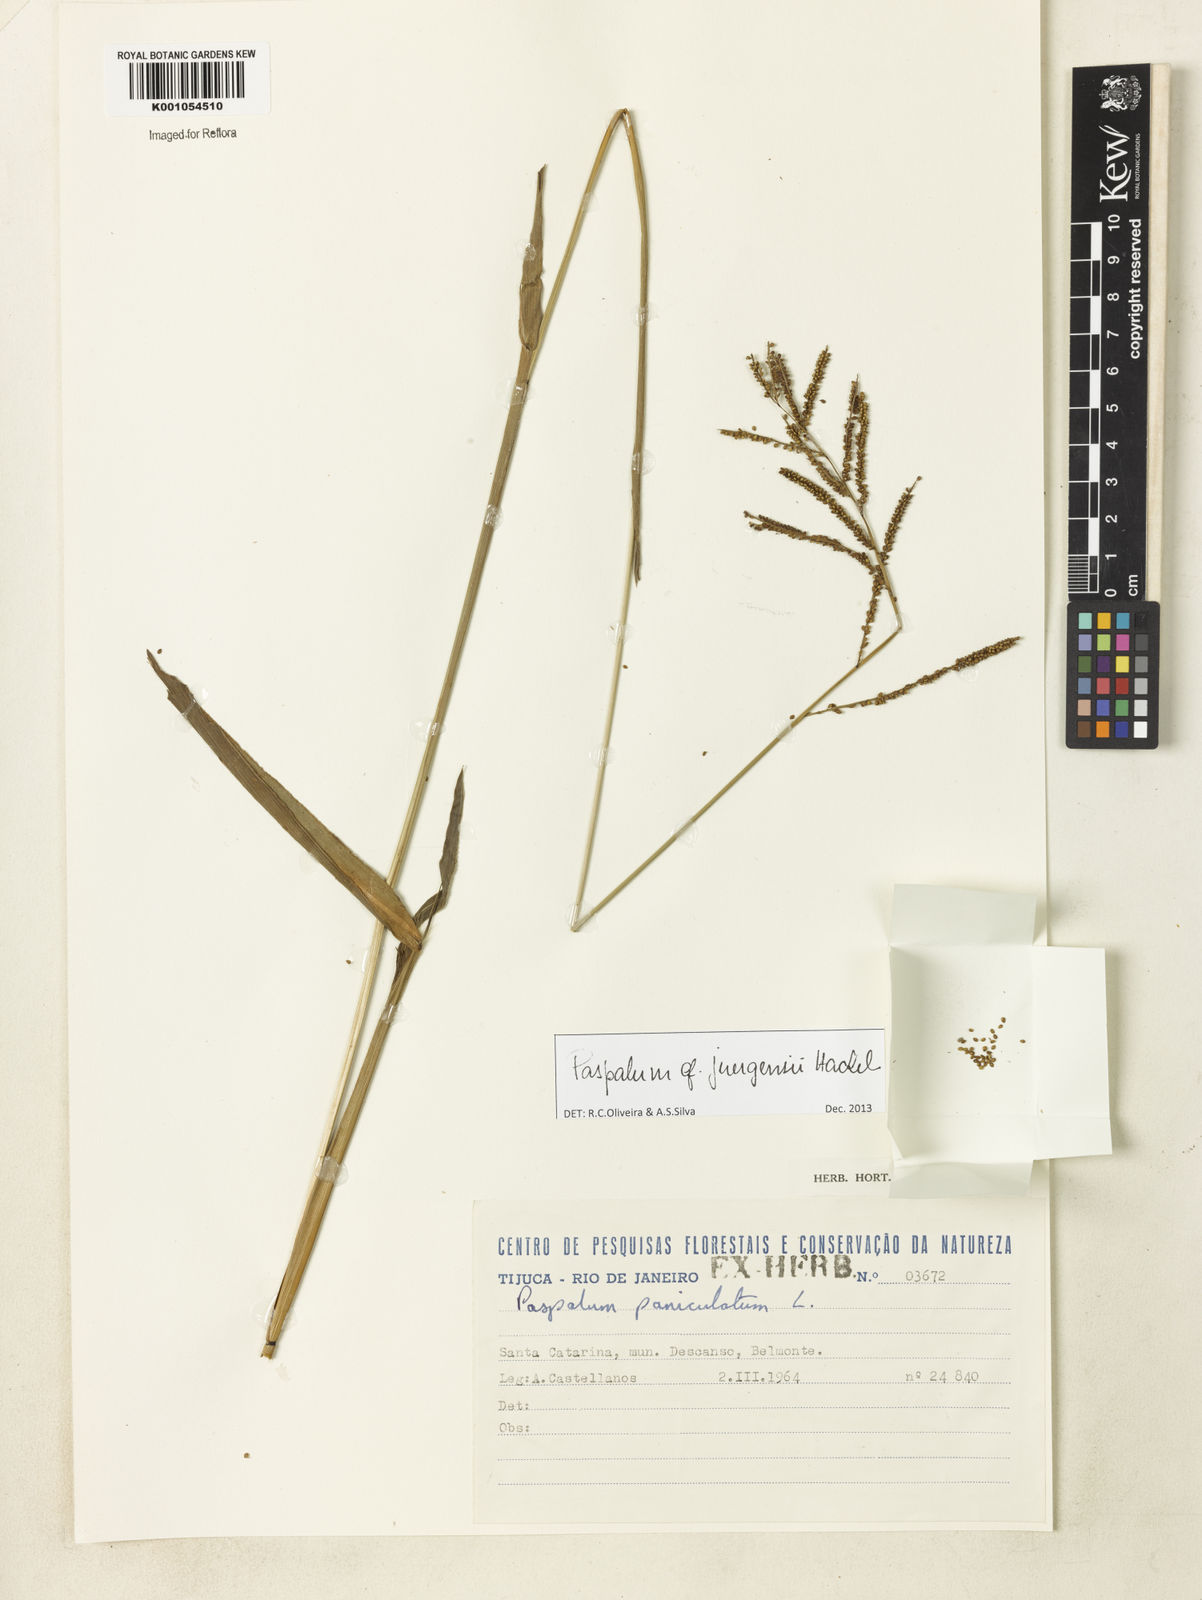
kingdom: Plantae
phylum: Tracheophyta
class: Liliopsida
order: Poales
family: Poaceae
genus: Paspalum
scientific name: Paspalum juergensii
